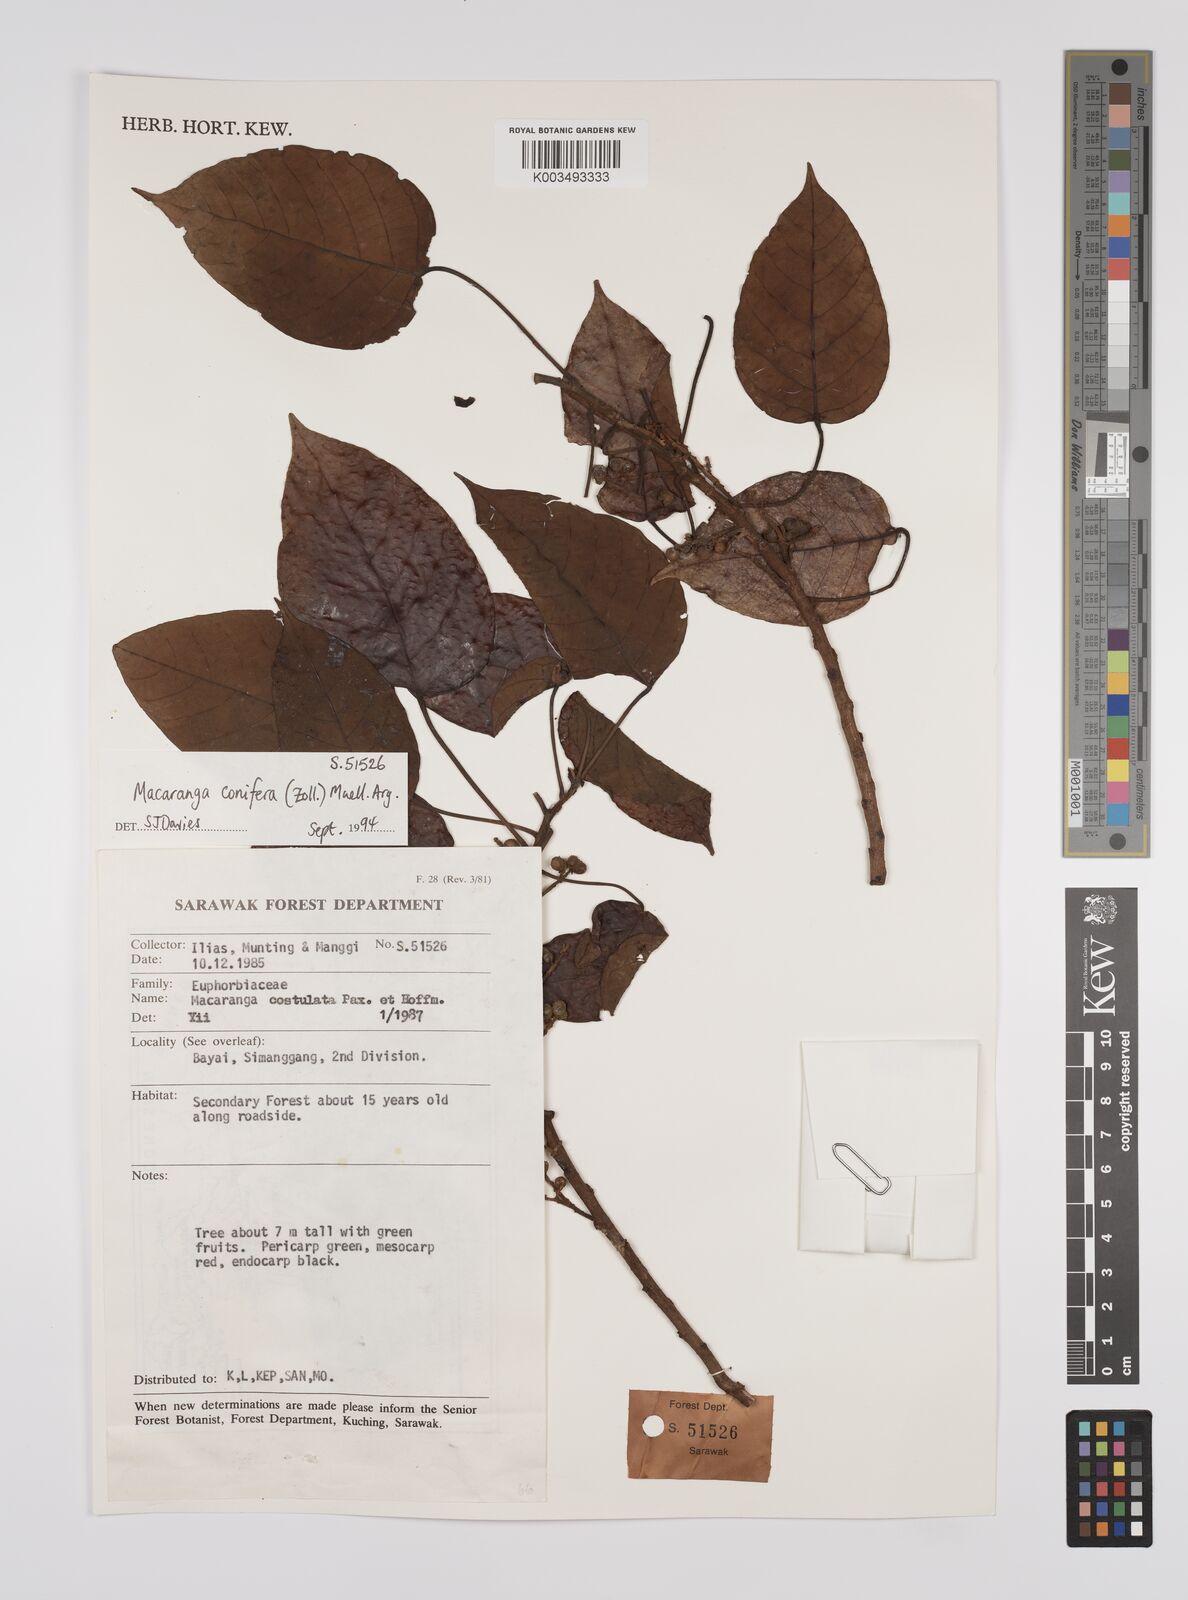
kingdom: Plantae
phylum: Tracheophyta
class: Magnoliopsida
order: Malpighiales
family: Euphorbiaceae
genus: Macaranga
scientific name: Macaranga conifera
